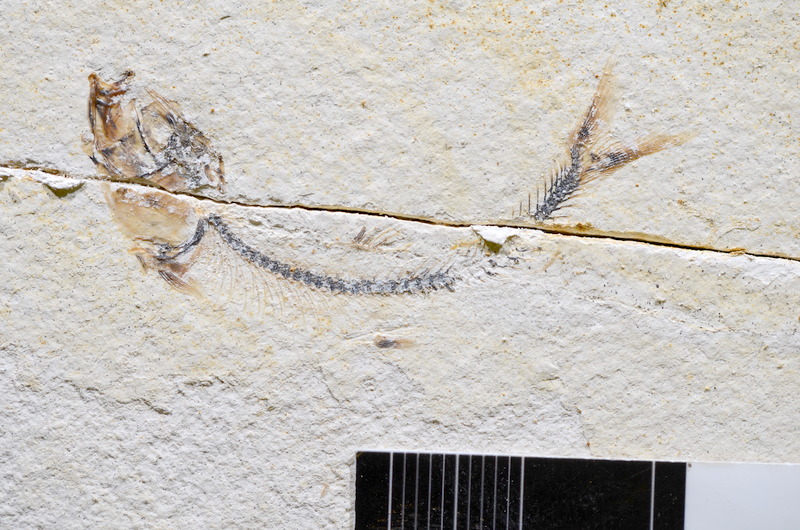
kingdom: Animalia
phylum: Chordata
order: Salmoniformes
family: Orthogonikleithridae
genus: Orthogonikleithrus
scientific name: Orthogonikleithrus hoelli
